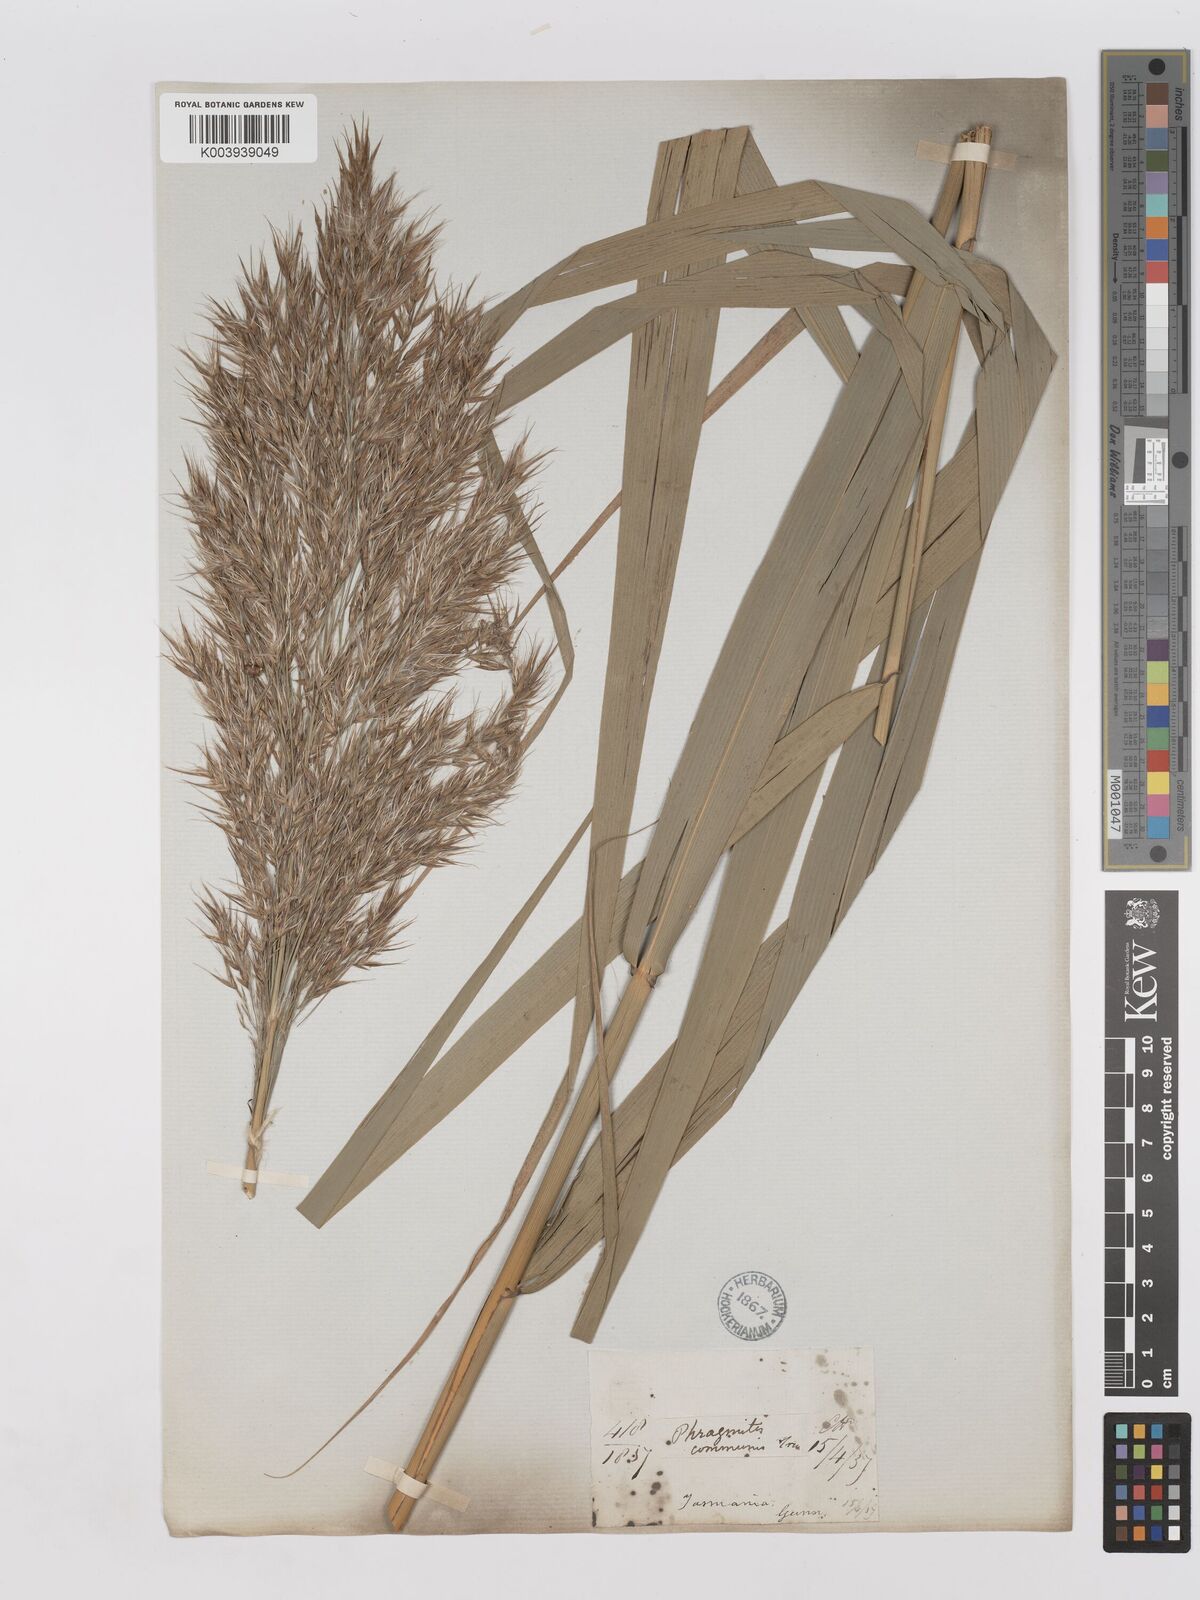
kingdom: Plantae
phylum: Tracheophyta
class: Liliopsida
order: Poales
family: Poaceae
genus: Phragmites
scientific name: Phragmites australis
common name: Common reed
